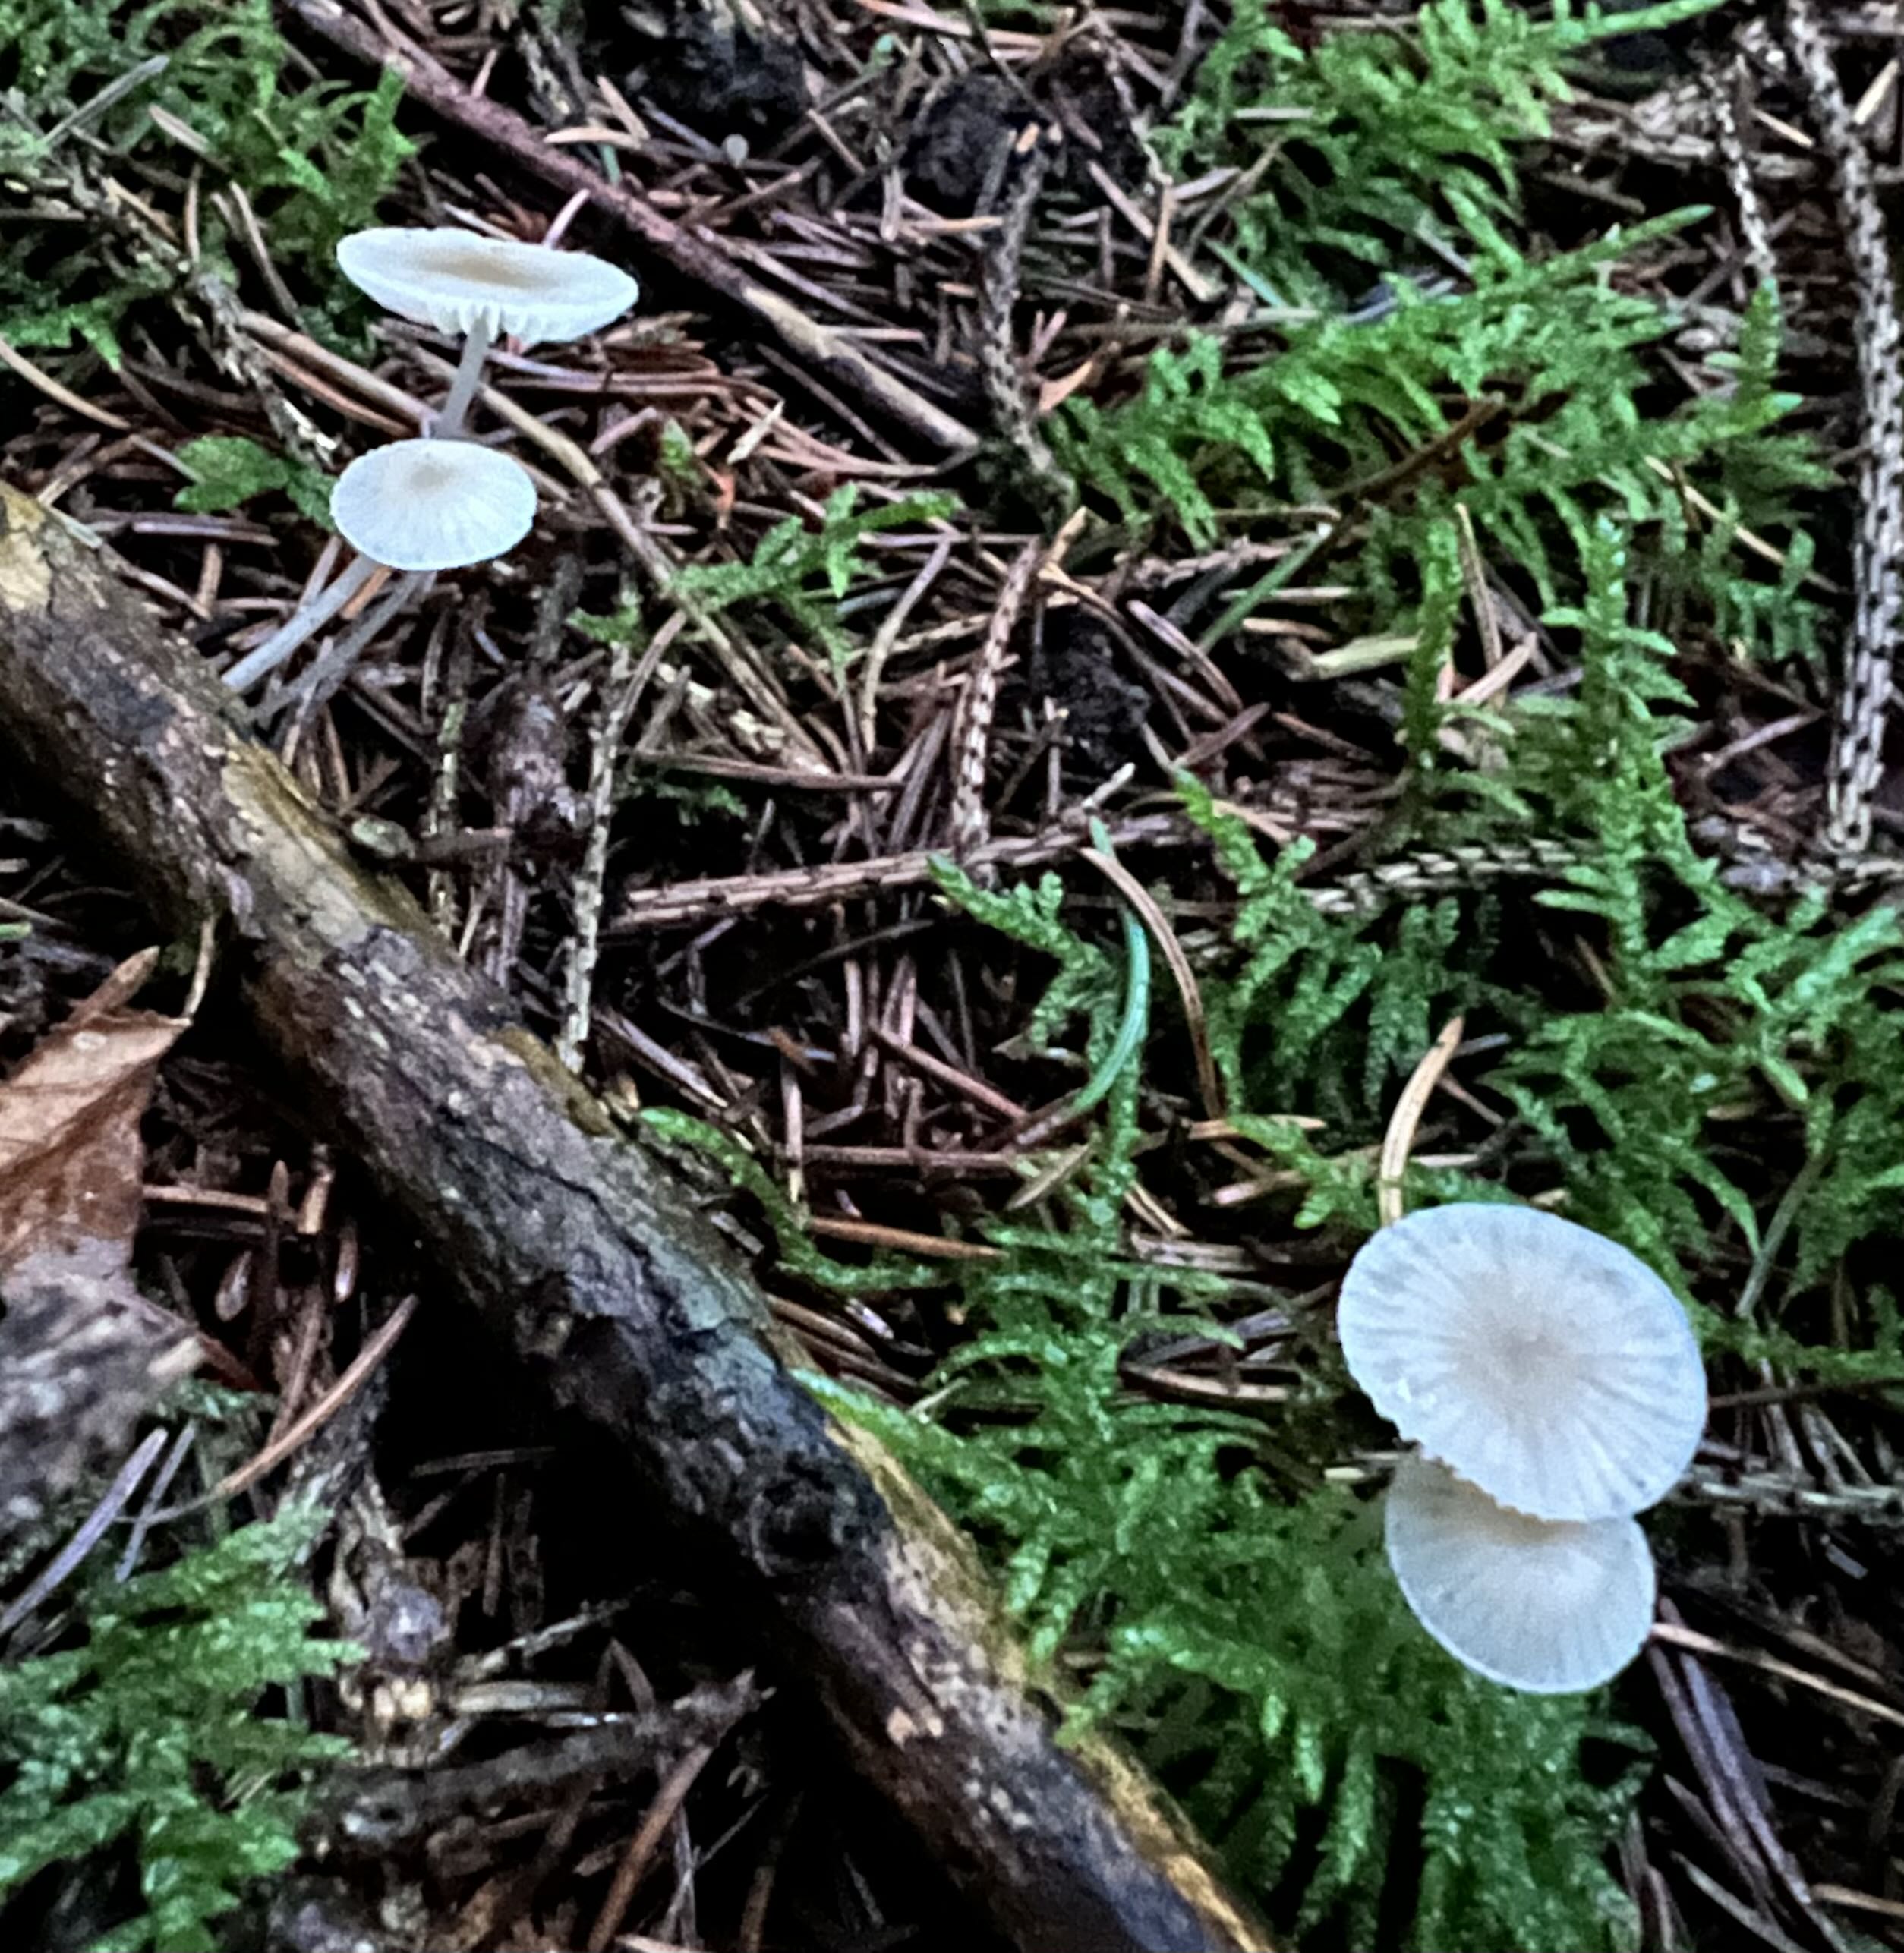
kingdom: Fungi
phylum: Basidiomycota
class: Agaricomycetes
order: Agaricales
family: Mycenaceae
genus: Mycena
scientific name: Mycena
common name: huesvamp
